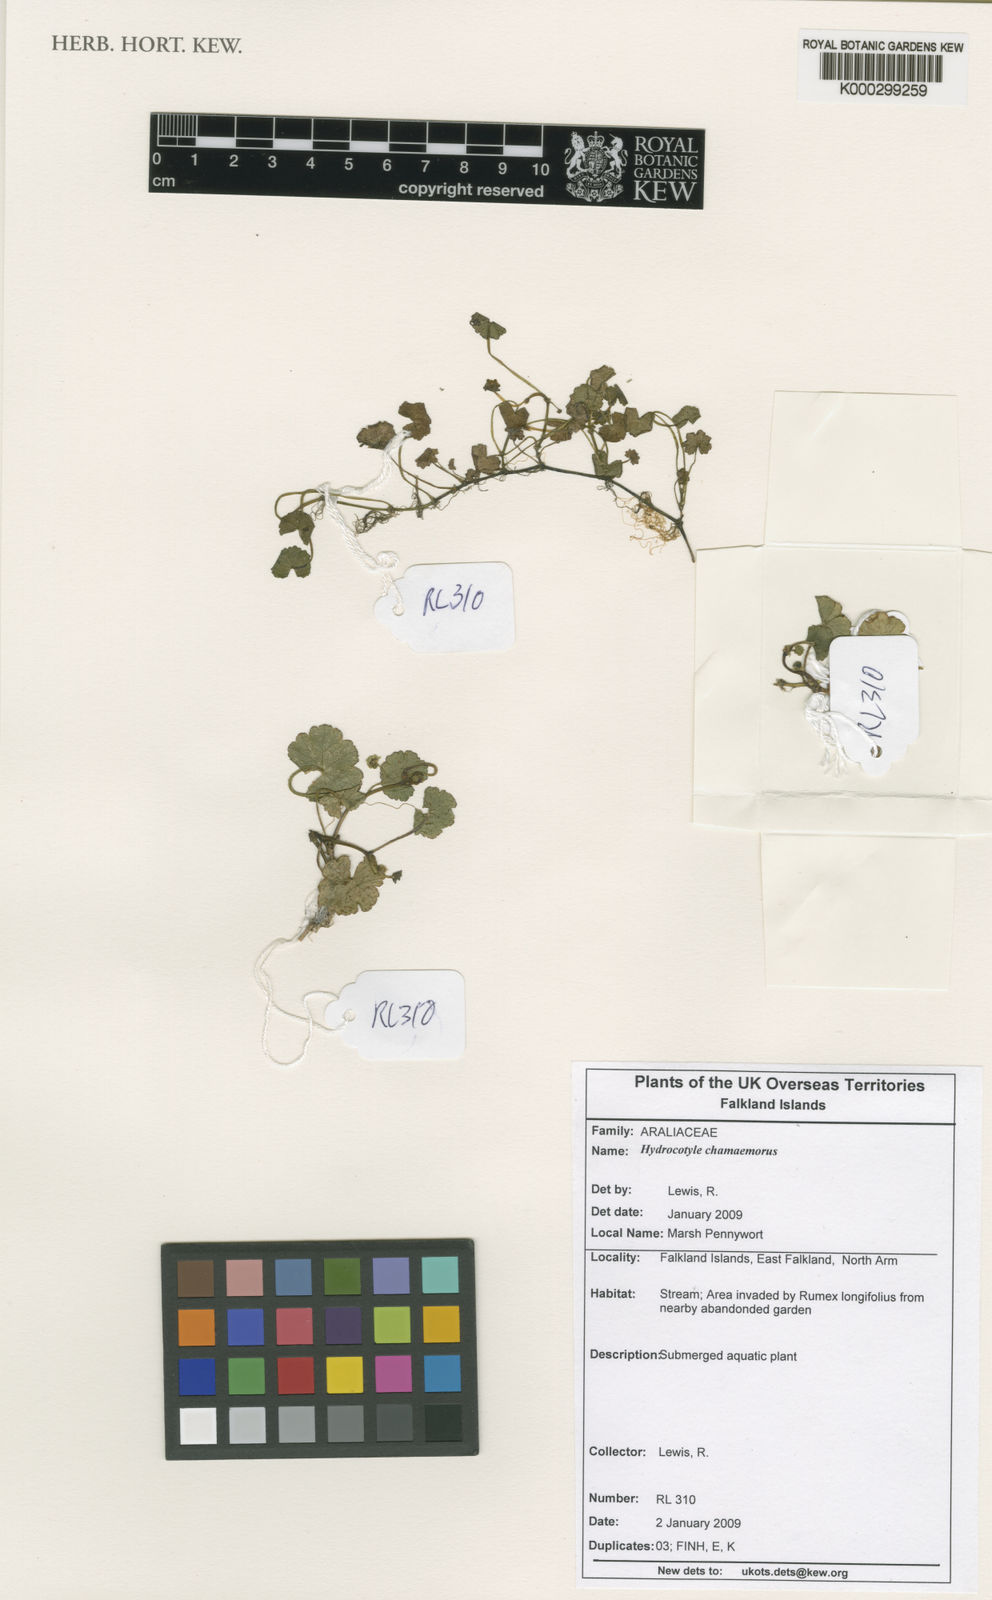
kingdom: Plantae
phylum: Tracheophyta
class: Magnoliopsida
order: Apiales
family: Araliaceae
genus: Hydrocotyle
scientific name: Hydrocotyle chamaemorus
